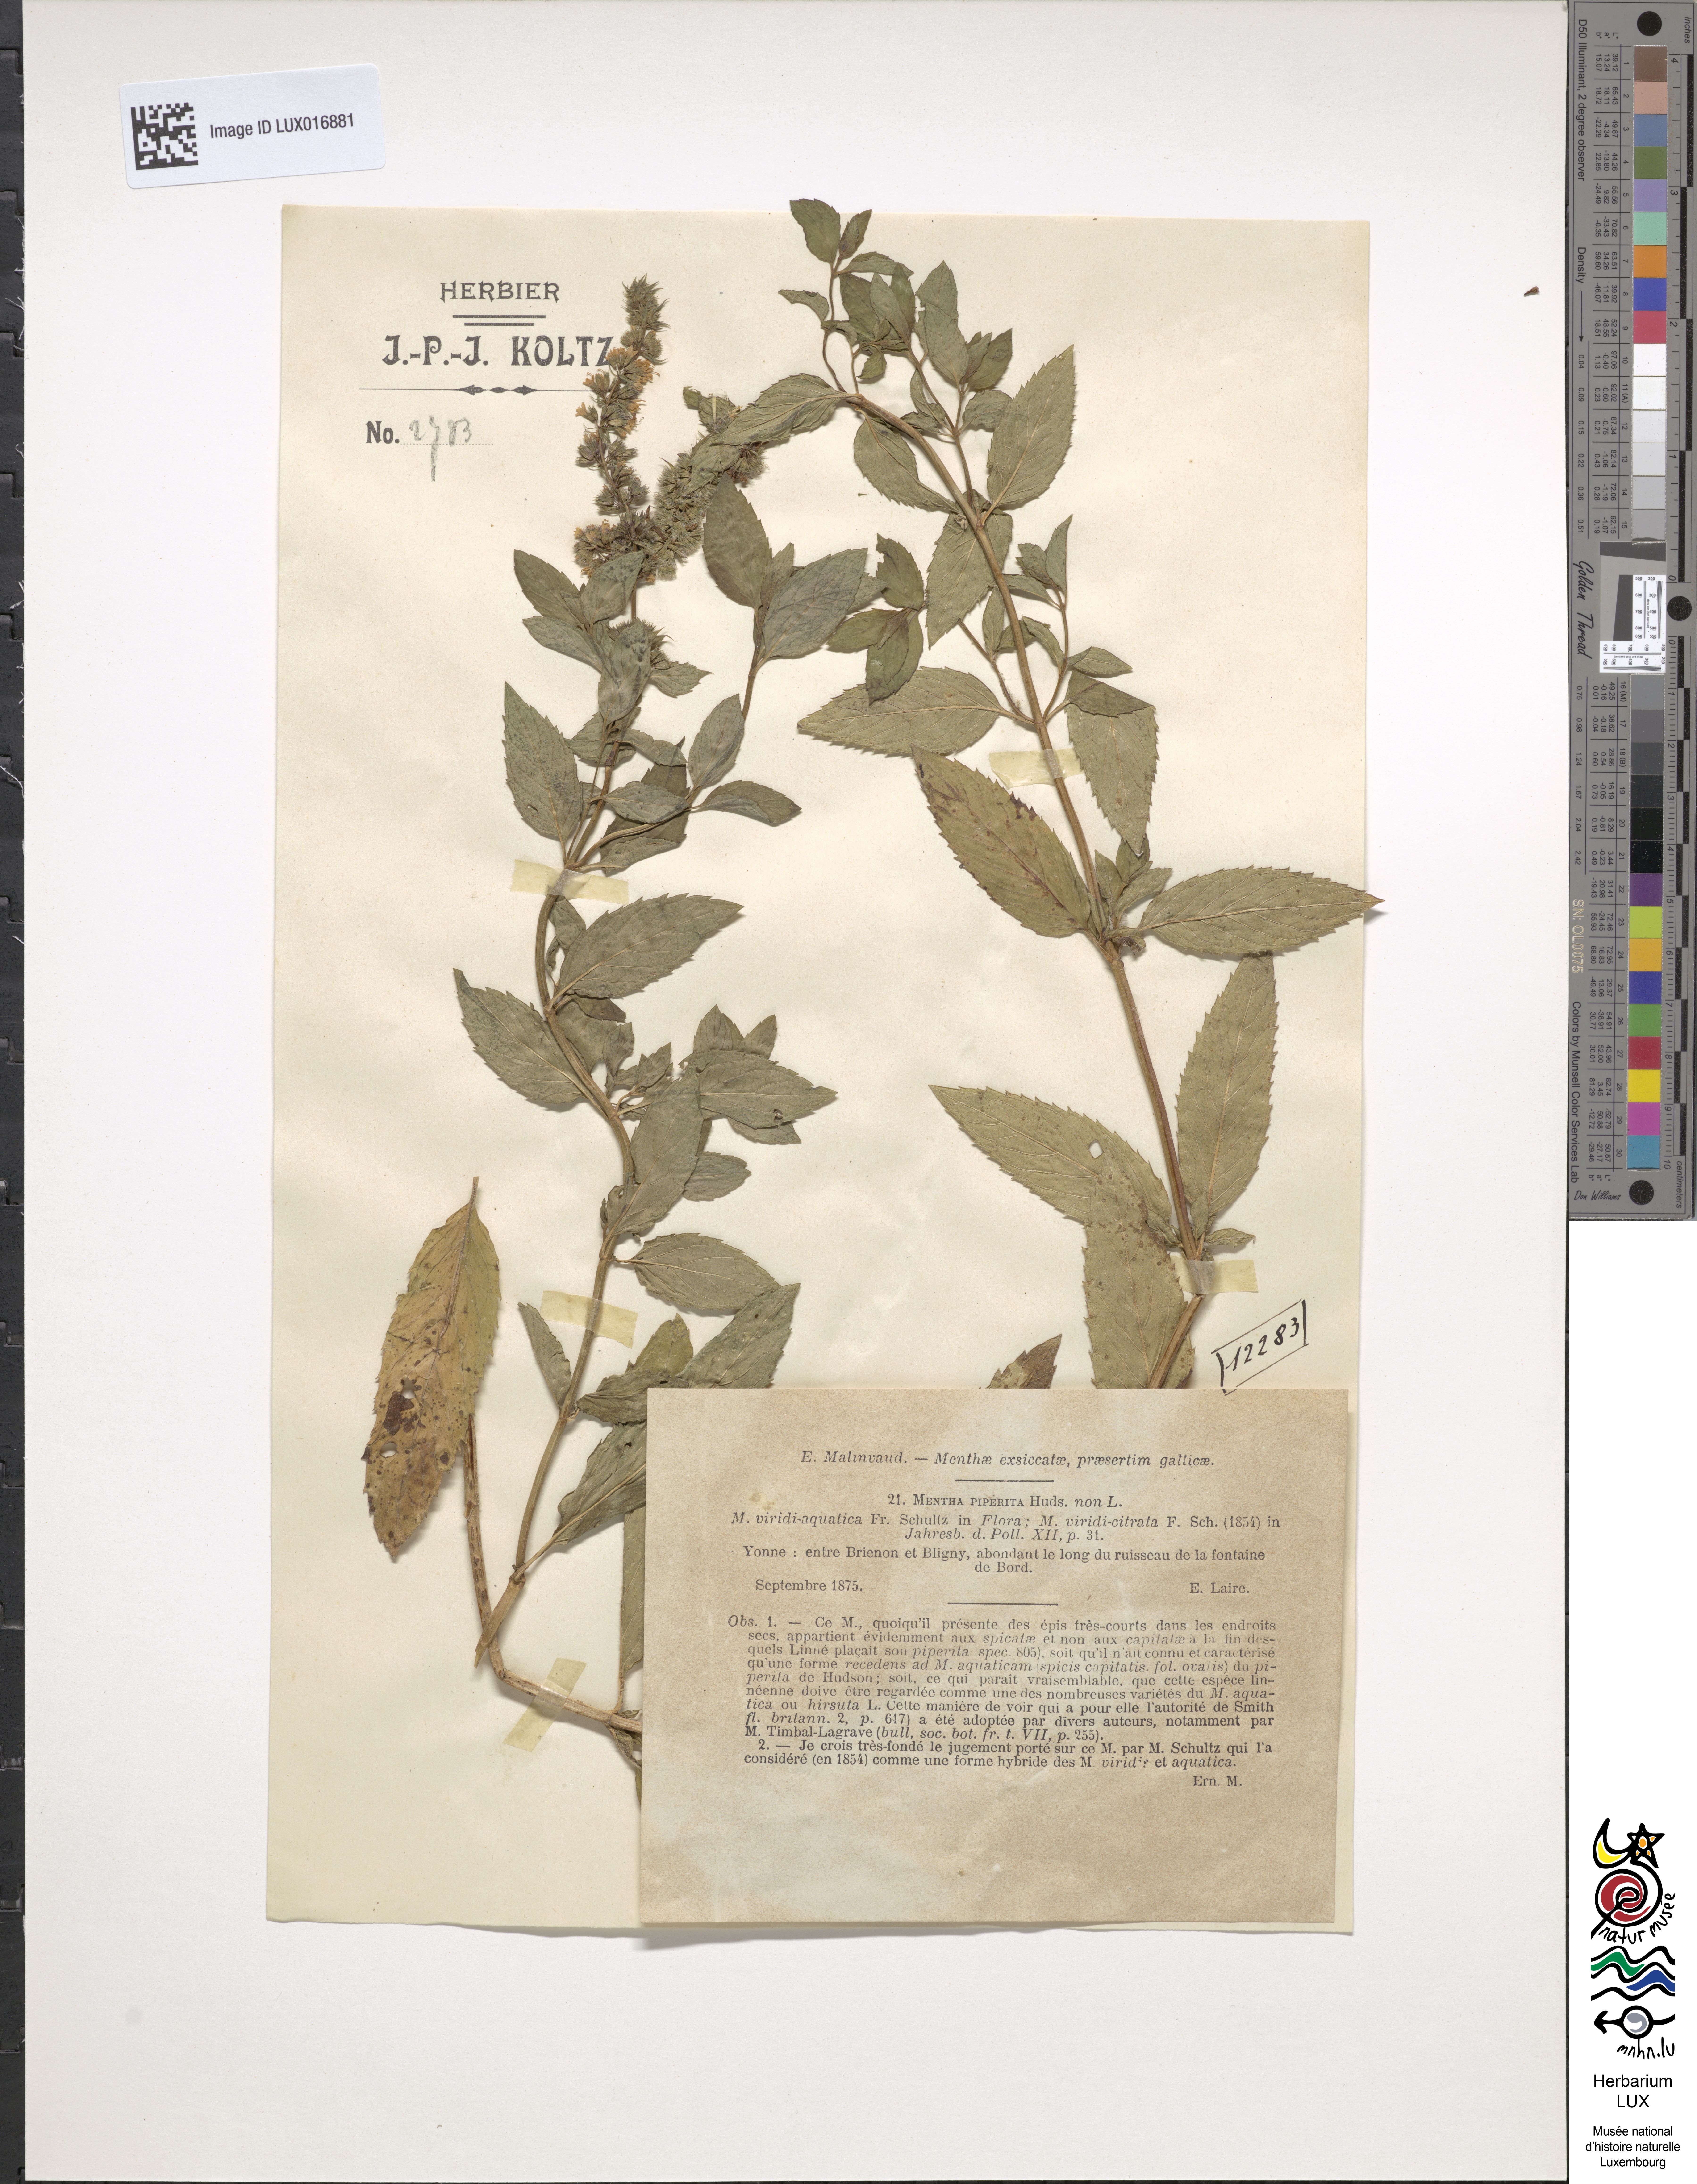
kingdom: Plantae
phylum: Tracheophyta
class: Magnoliopsida
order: Lamiales
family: Lamiaceae
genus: Mentha
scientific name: Mentha piperita
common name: Peppermint
